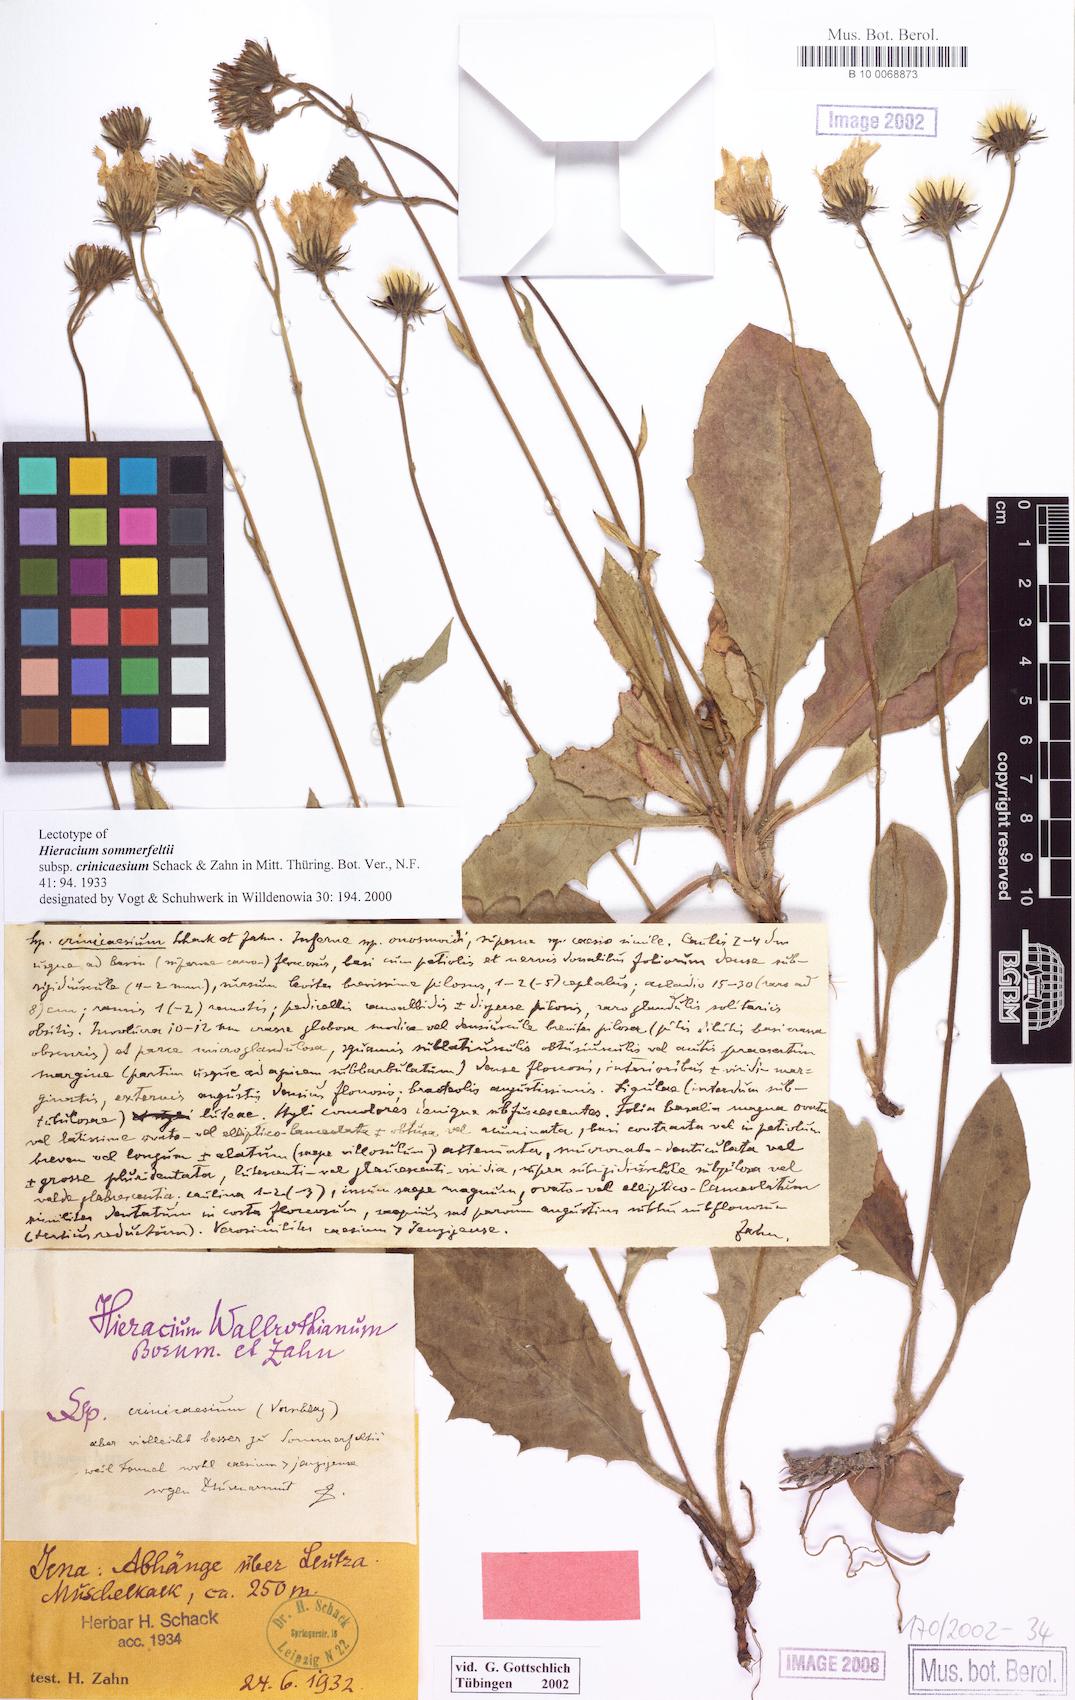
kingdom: Plantae
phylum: Tracheophyta
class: Magnoliopsida
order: Asterales
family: Asteraceae
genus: Hieracium
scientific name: Hieracium hypochoeroides
